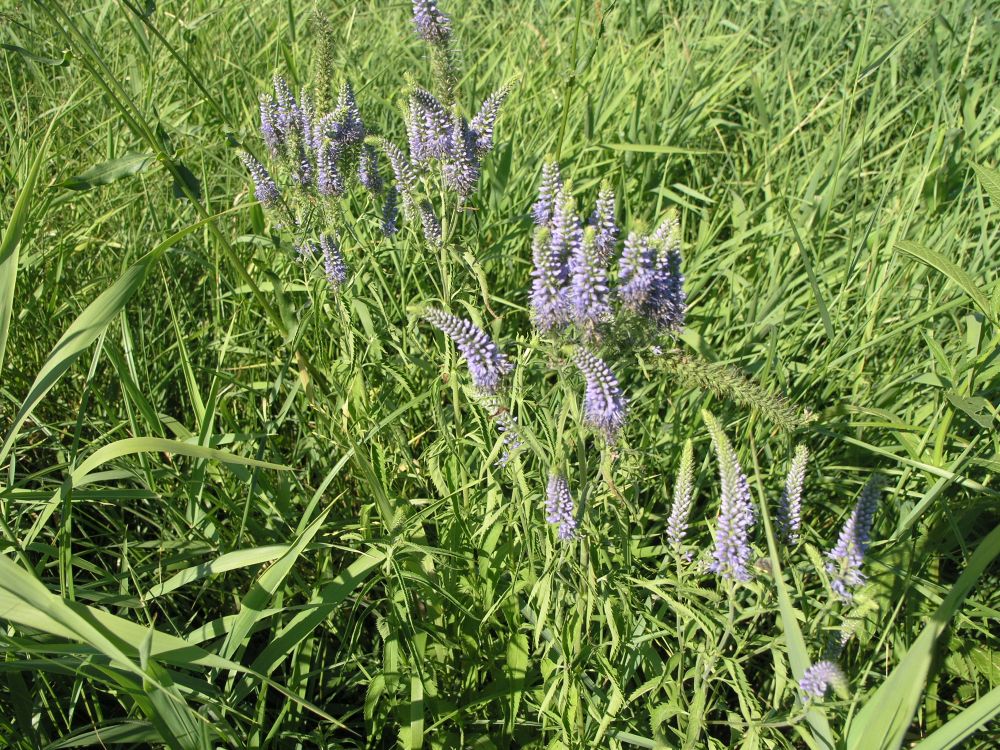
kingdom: Plantae
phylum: Tracheophyta
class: Magnoliopsida
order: Lamiales
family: Plantaginaceae
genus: Veronica
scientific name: Veronica longifolia
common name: Garden speedwell
